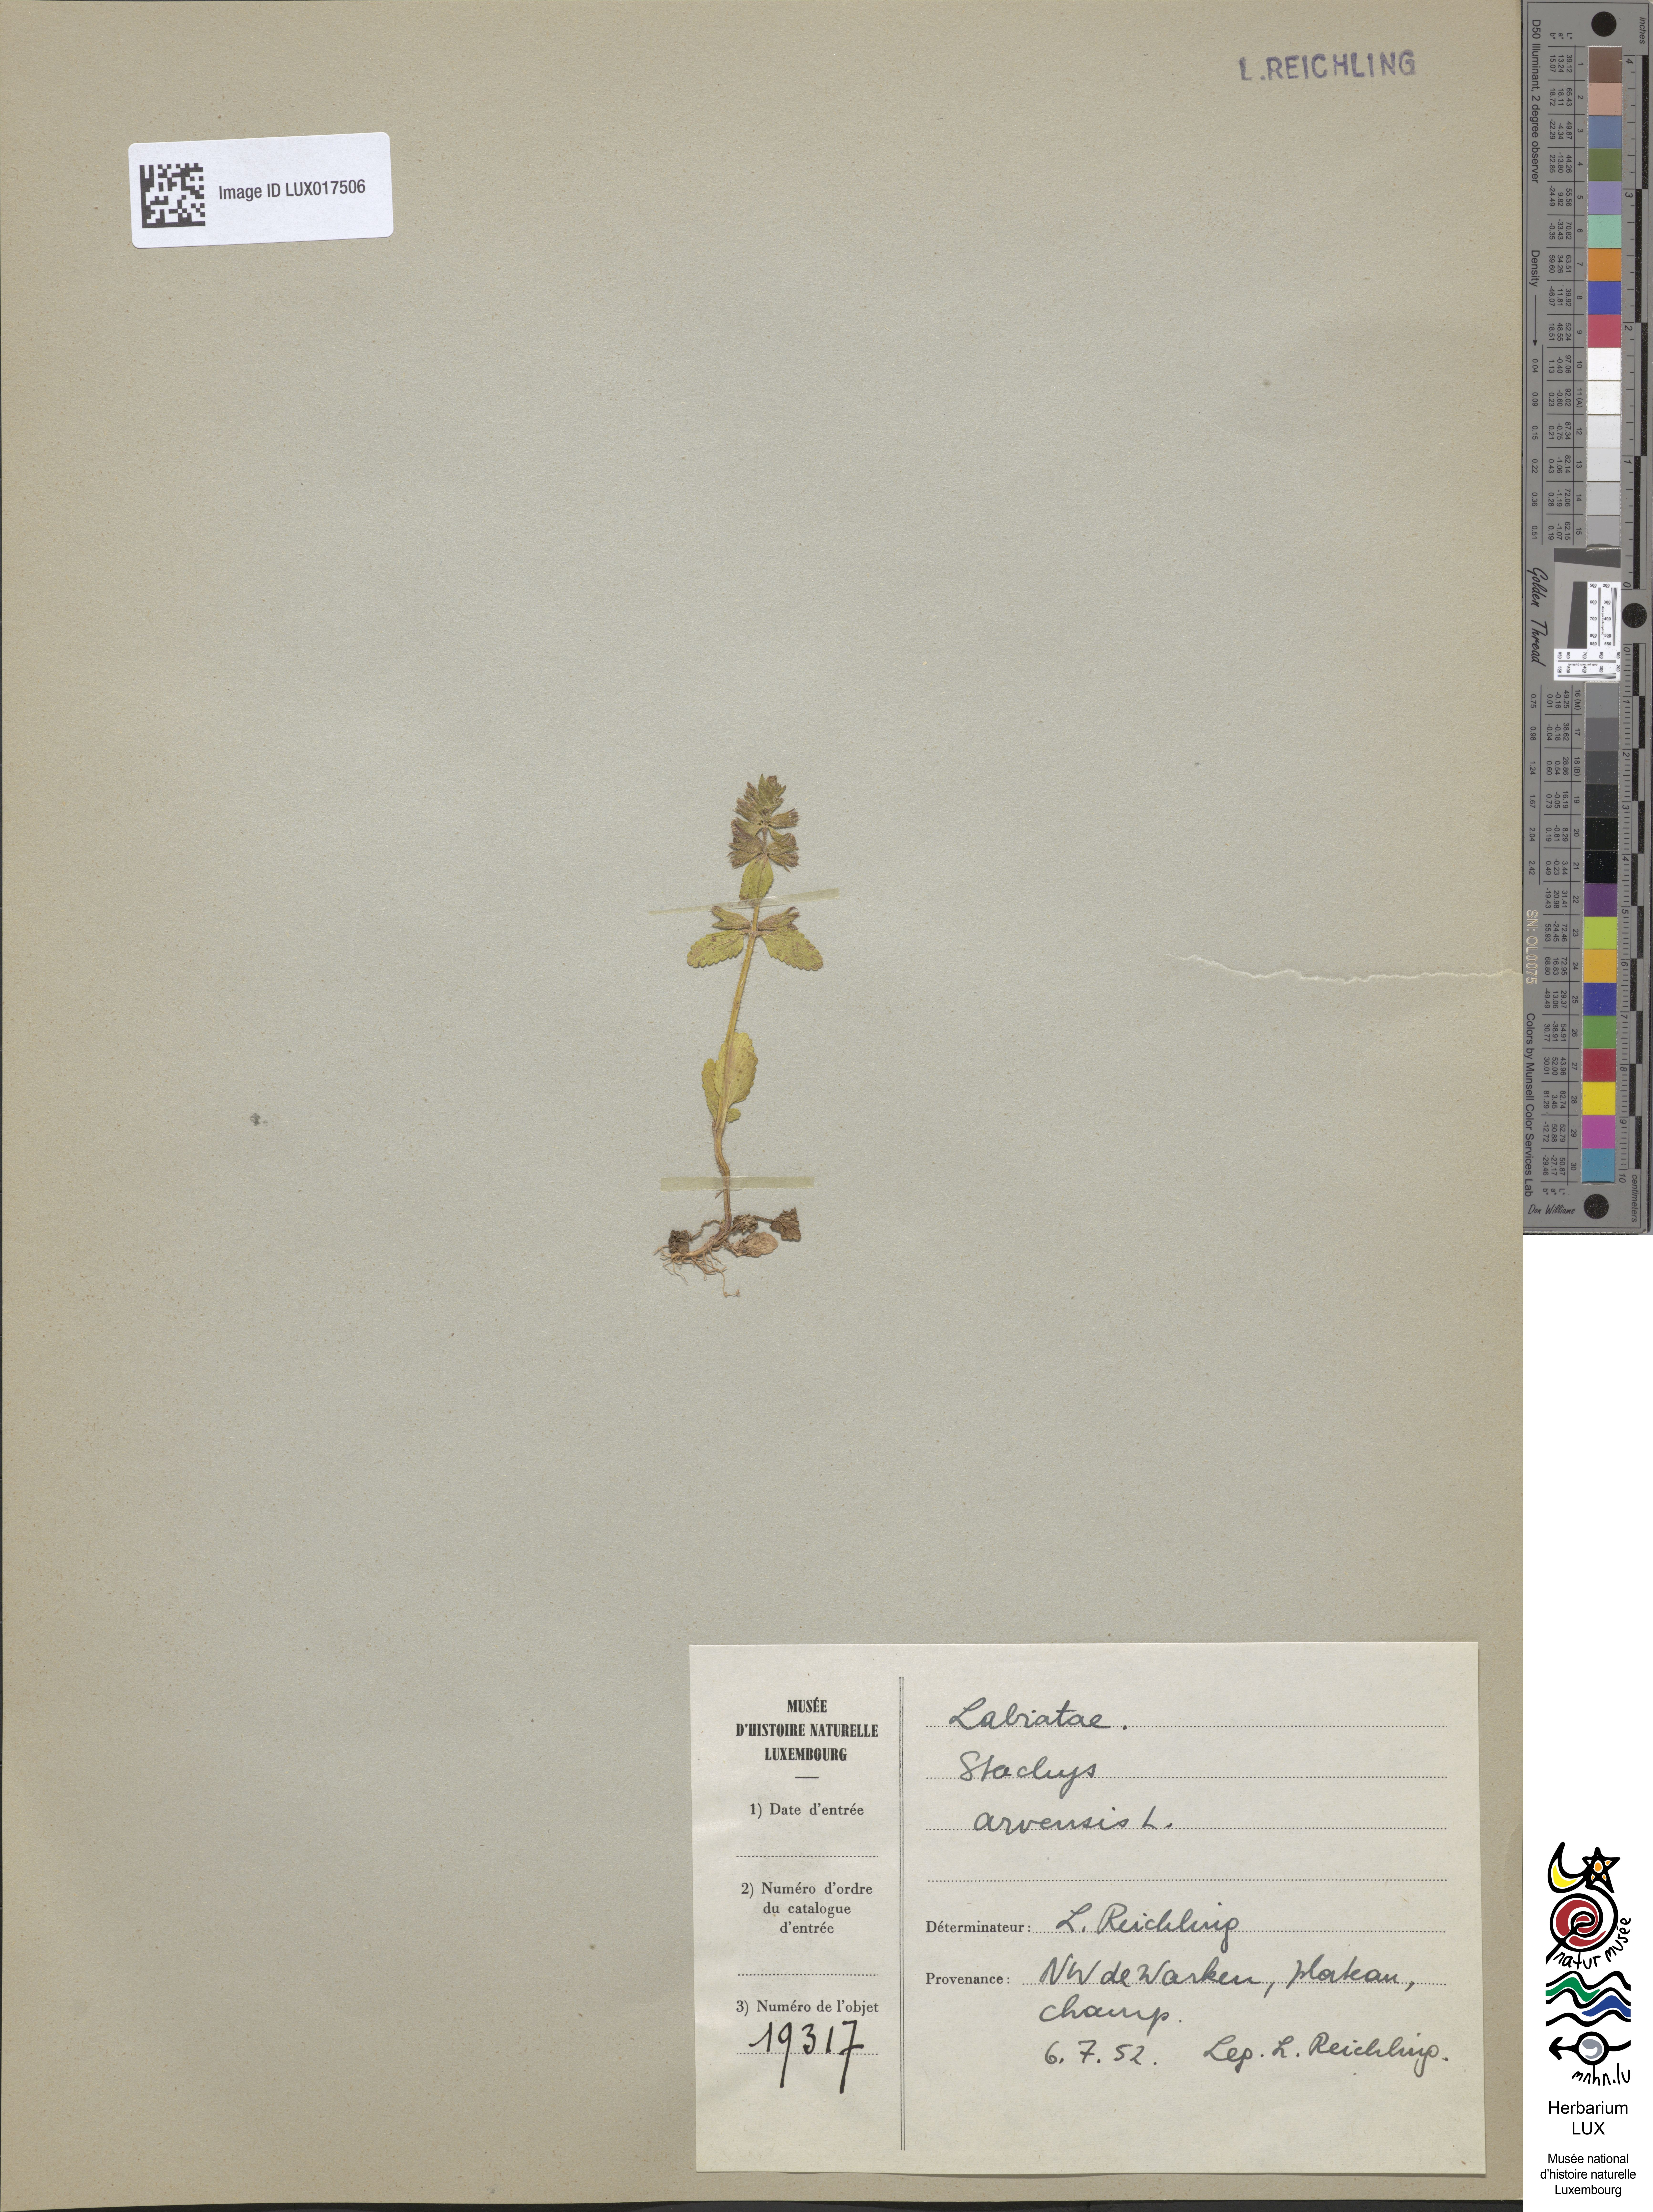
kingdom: Plantae
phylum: Tracheophyta
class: Magnoliopsida
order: Lamiales
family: Lamiaceae
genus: Stachys
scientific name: Stachys arvensis
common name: Field woundwort
